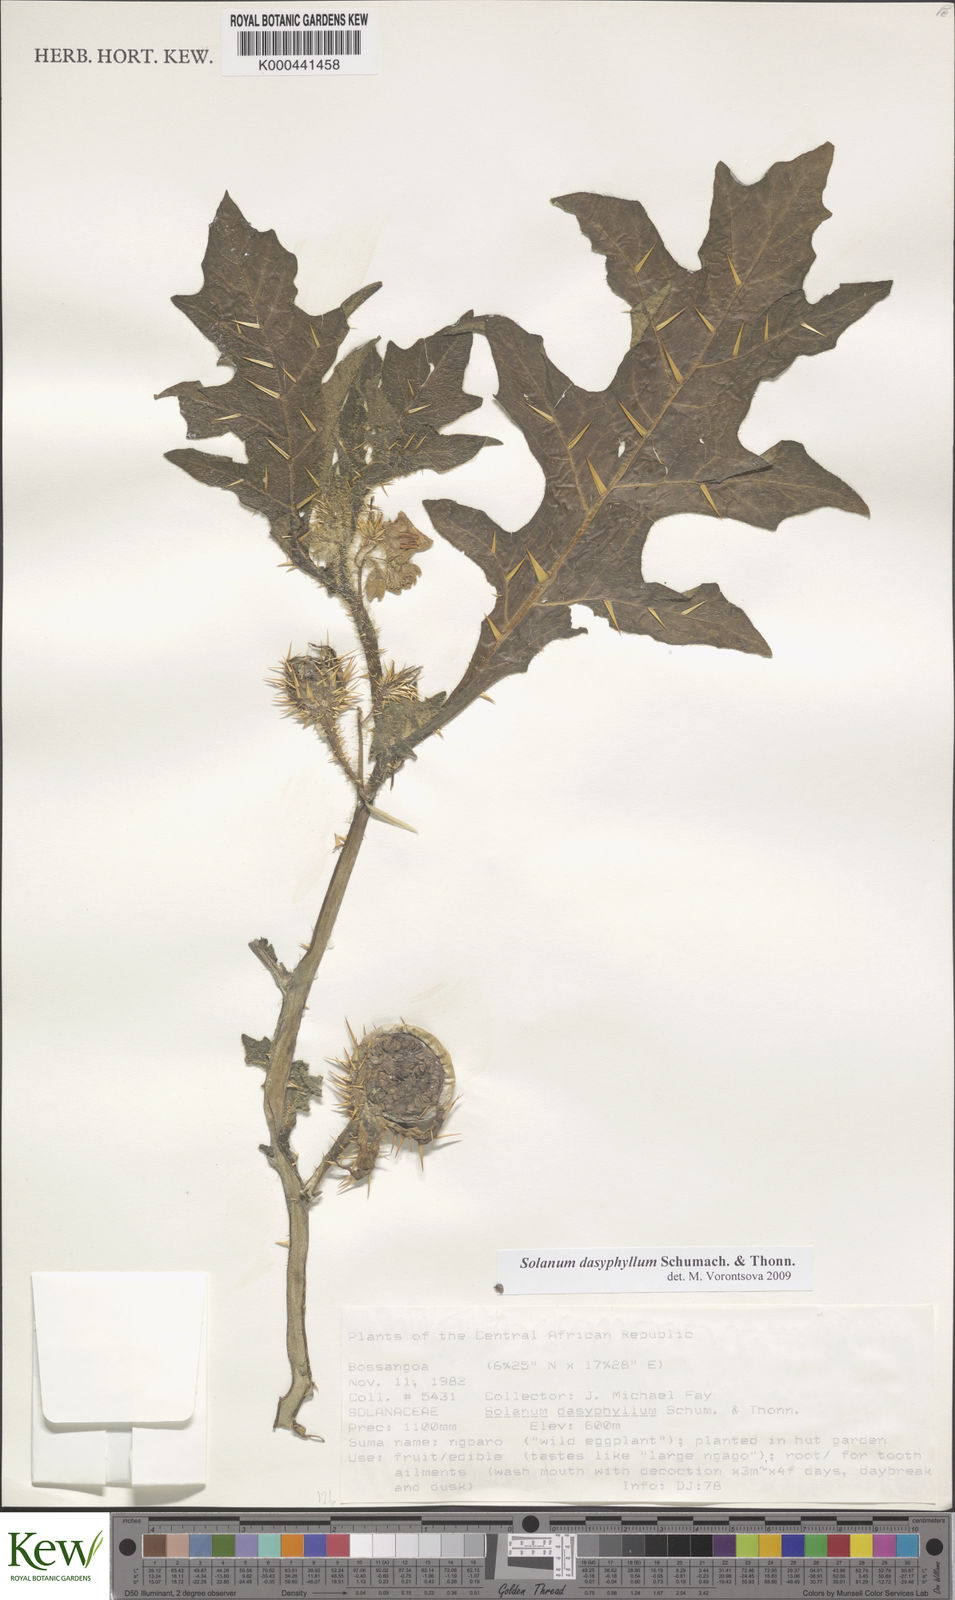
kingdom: Plantae
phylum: Tracheophyta
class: Magnoliopsida
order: Solanales
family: Solanaceae
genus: Solanum
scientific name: Solanum dasyphyllum
